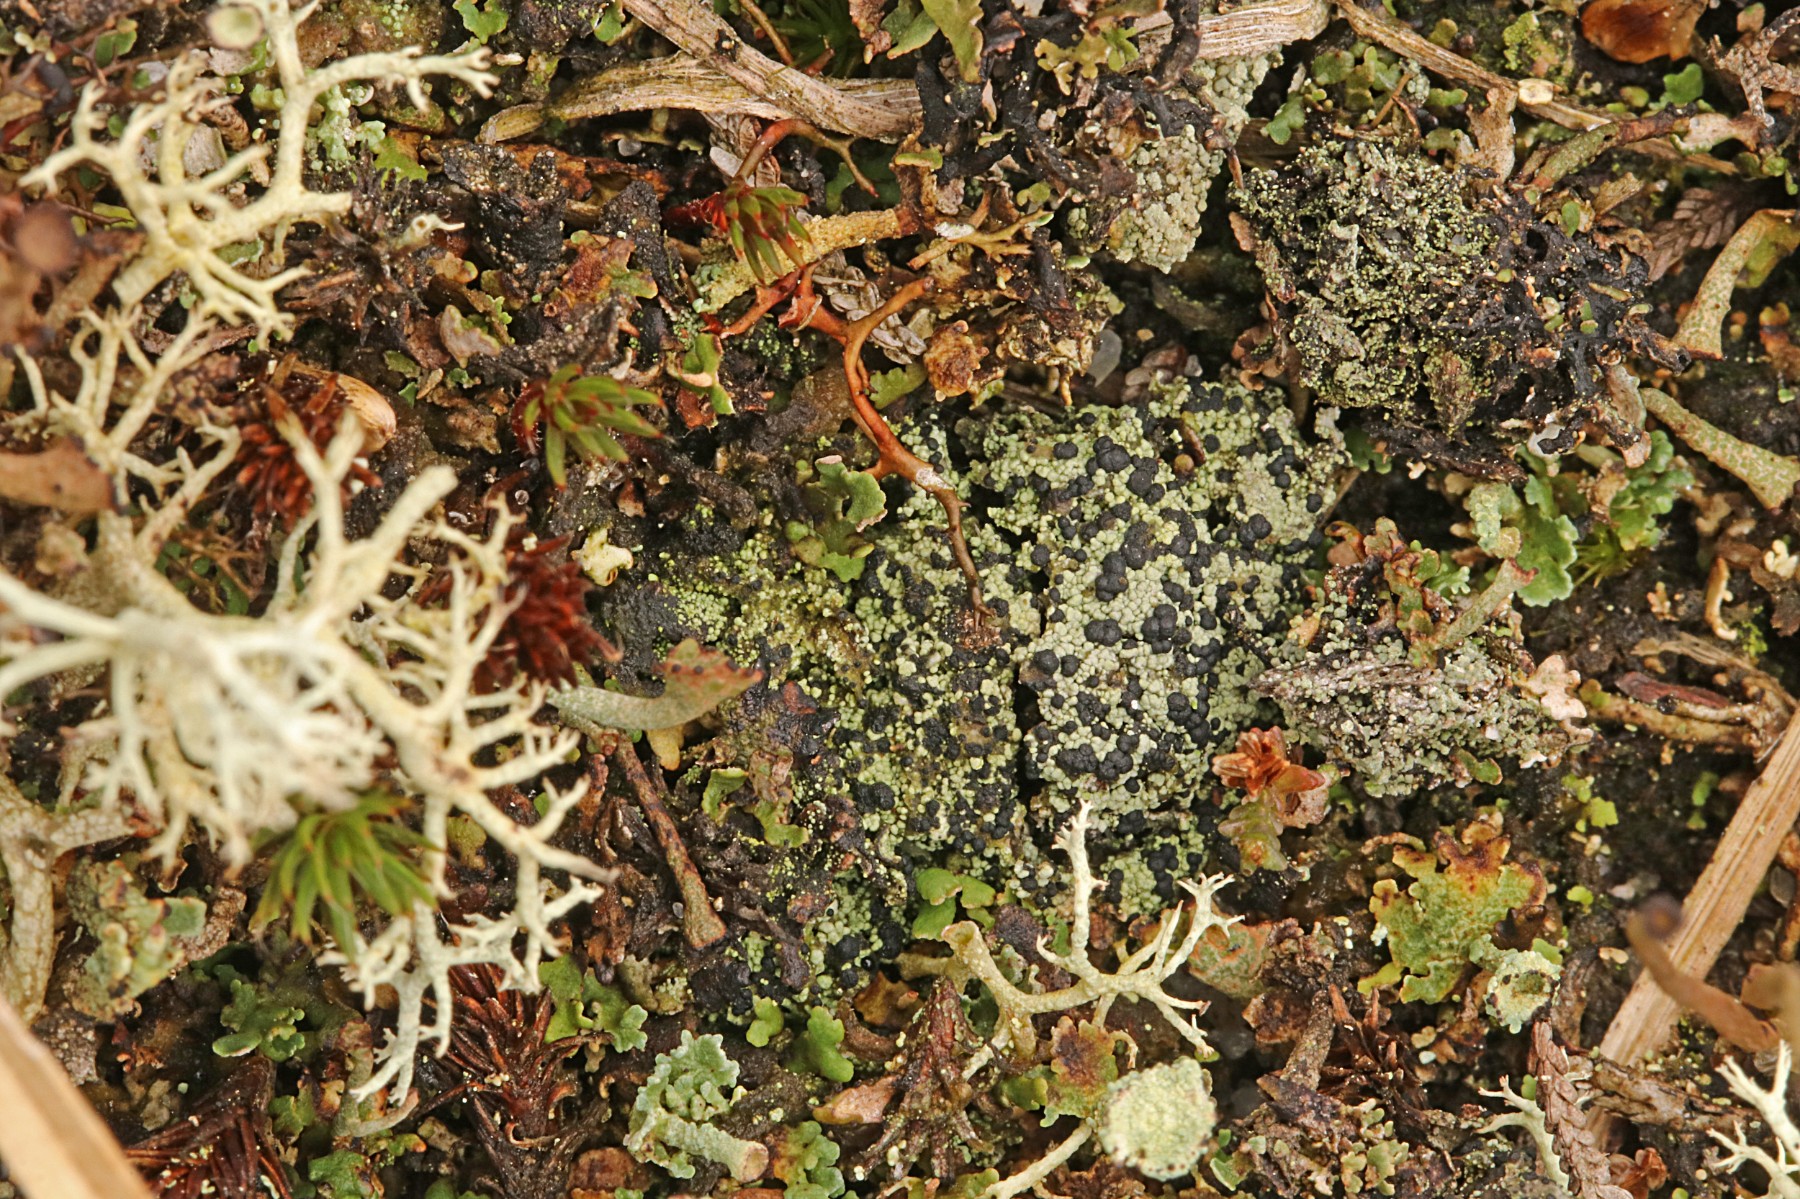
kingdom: Fungi
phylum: Ascomycota
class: Lecanoromycetes
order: Lecanorales
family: Byssolomataceae
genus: Micarea
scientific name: Micarea lignaria
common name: tørve-knaplav
